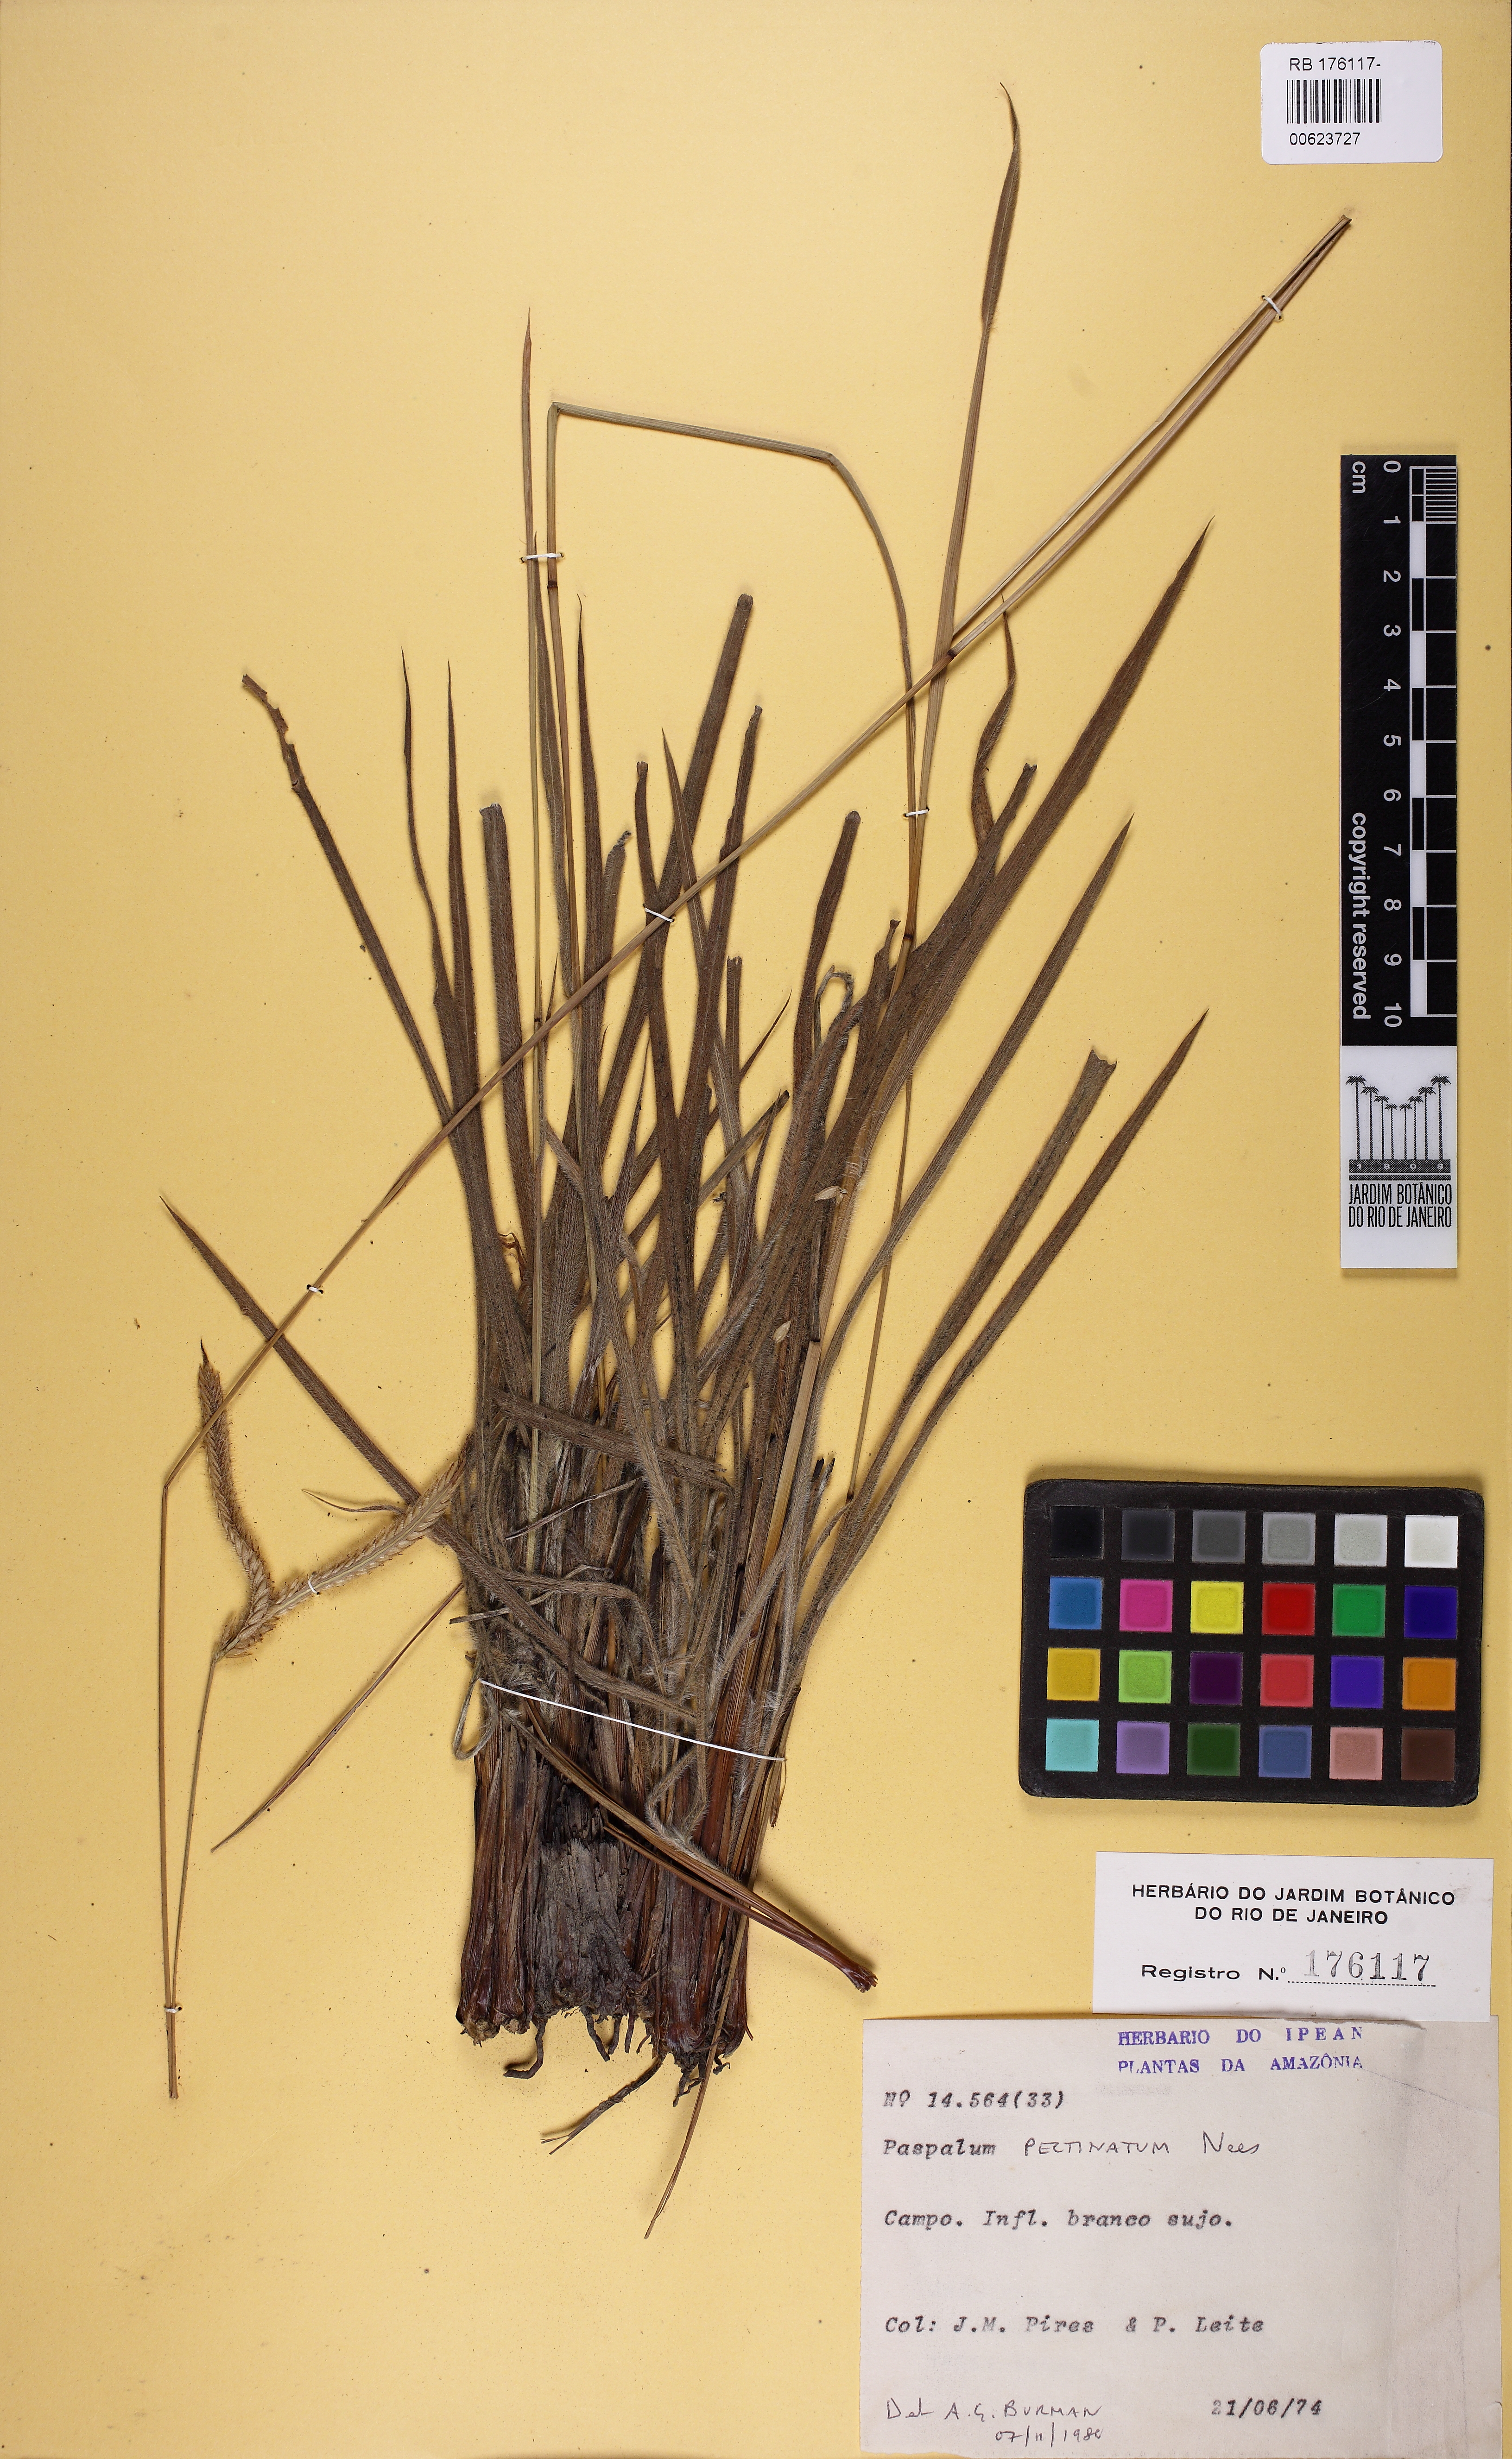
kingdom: Plantae
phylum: Tracheophyta
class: Liliopsida
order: Poales
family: Poaceae
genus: Paspalum
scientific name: Paspalum pectinatum
